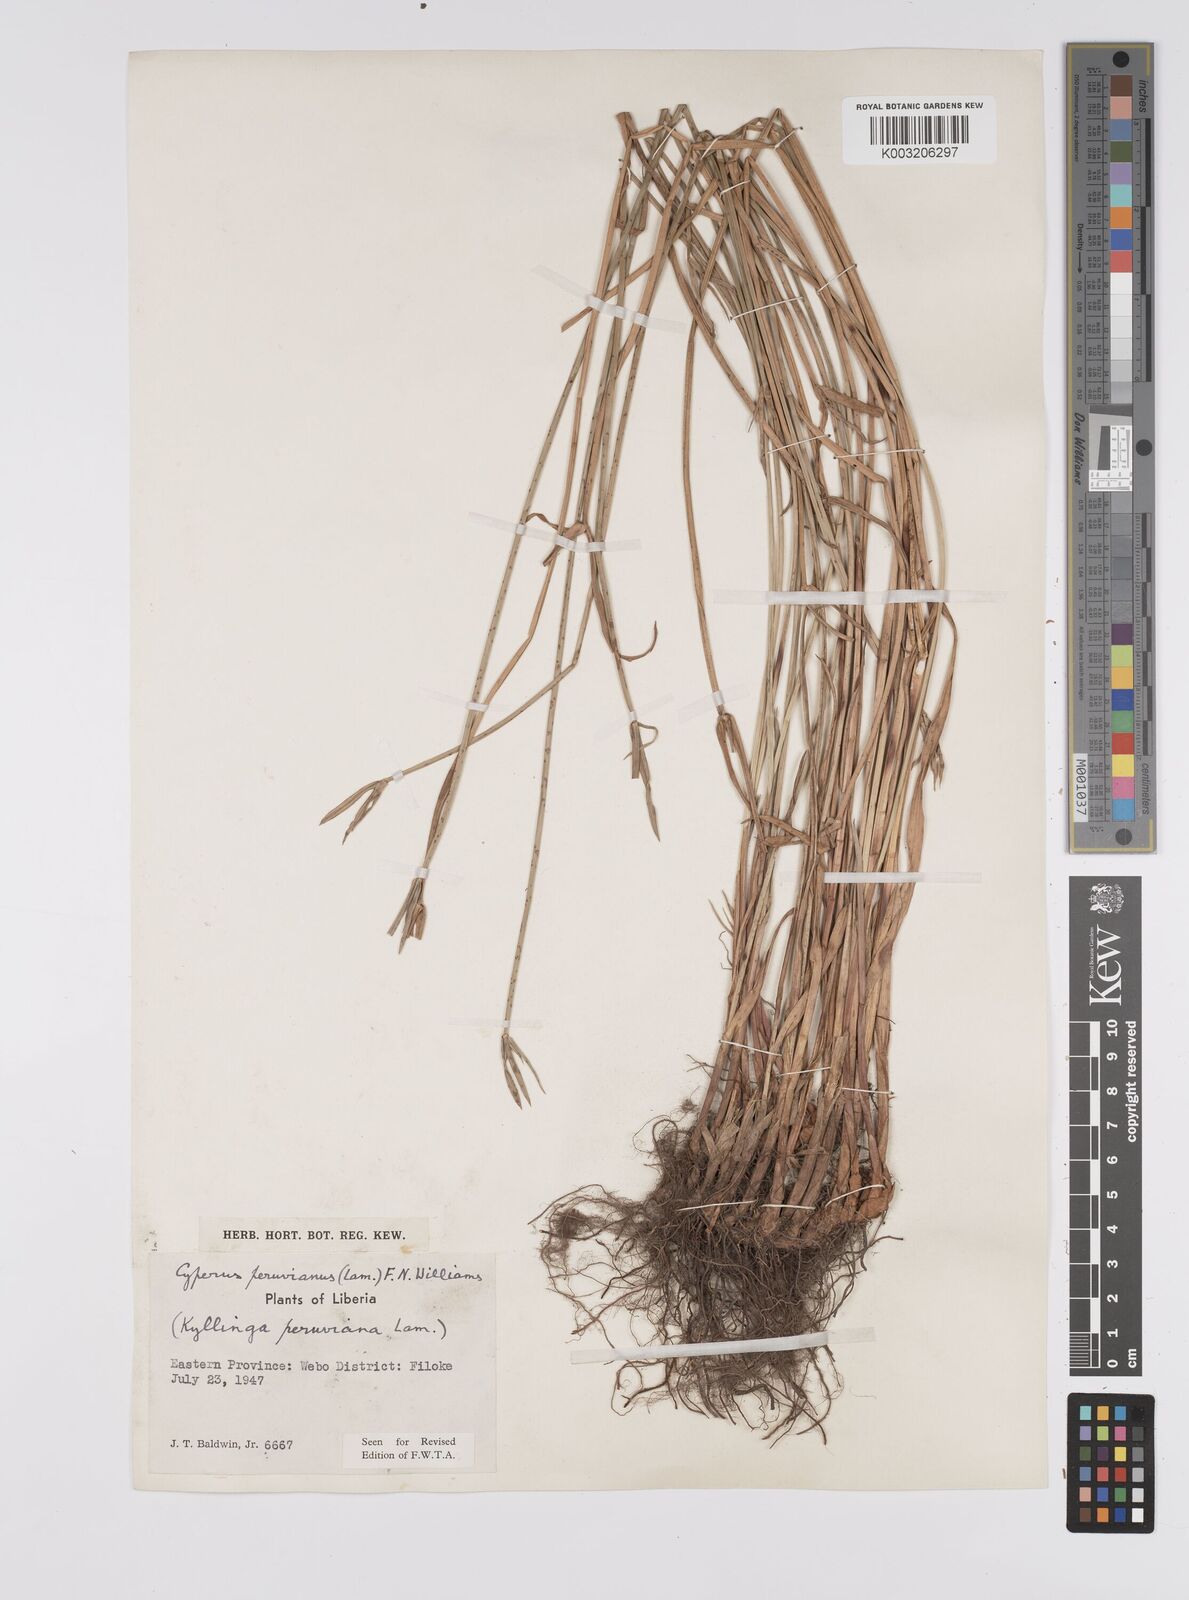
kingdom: Plantae
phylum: Tracheophyta
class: Liliopsida
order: Poales
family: Cyperaceae
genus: Cyperus
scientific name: Cyperus obtusatus
